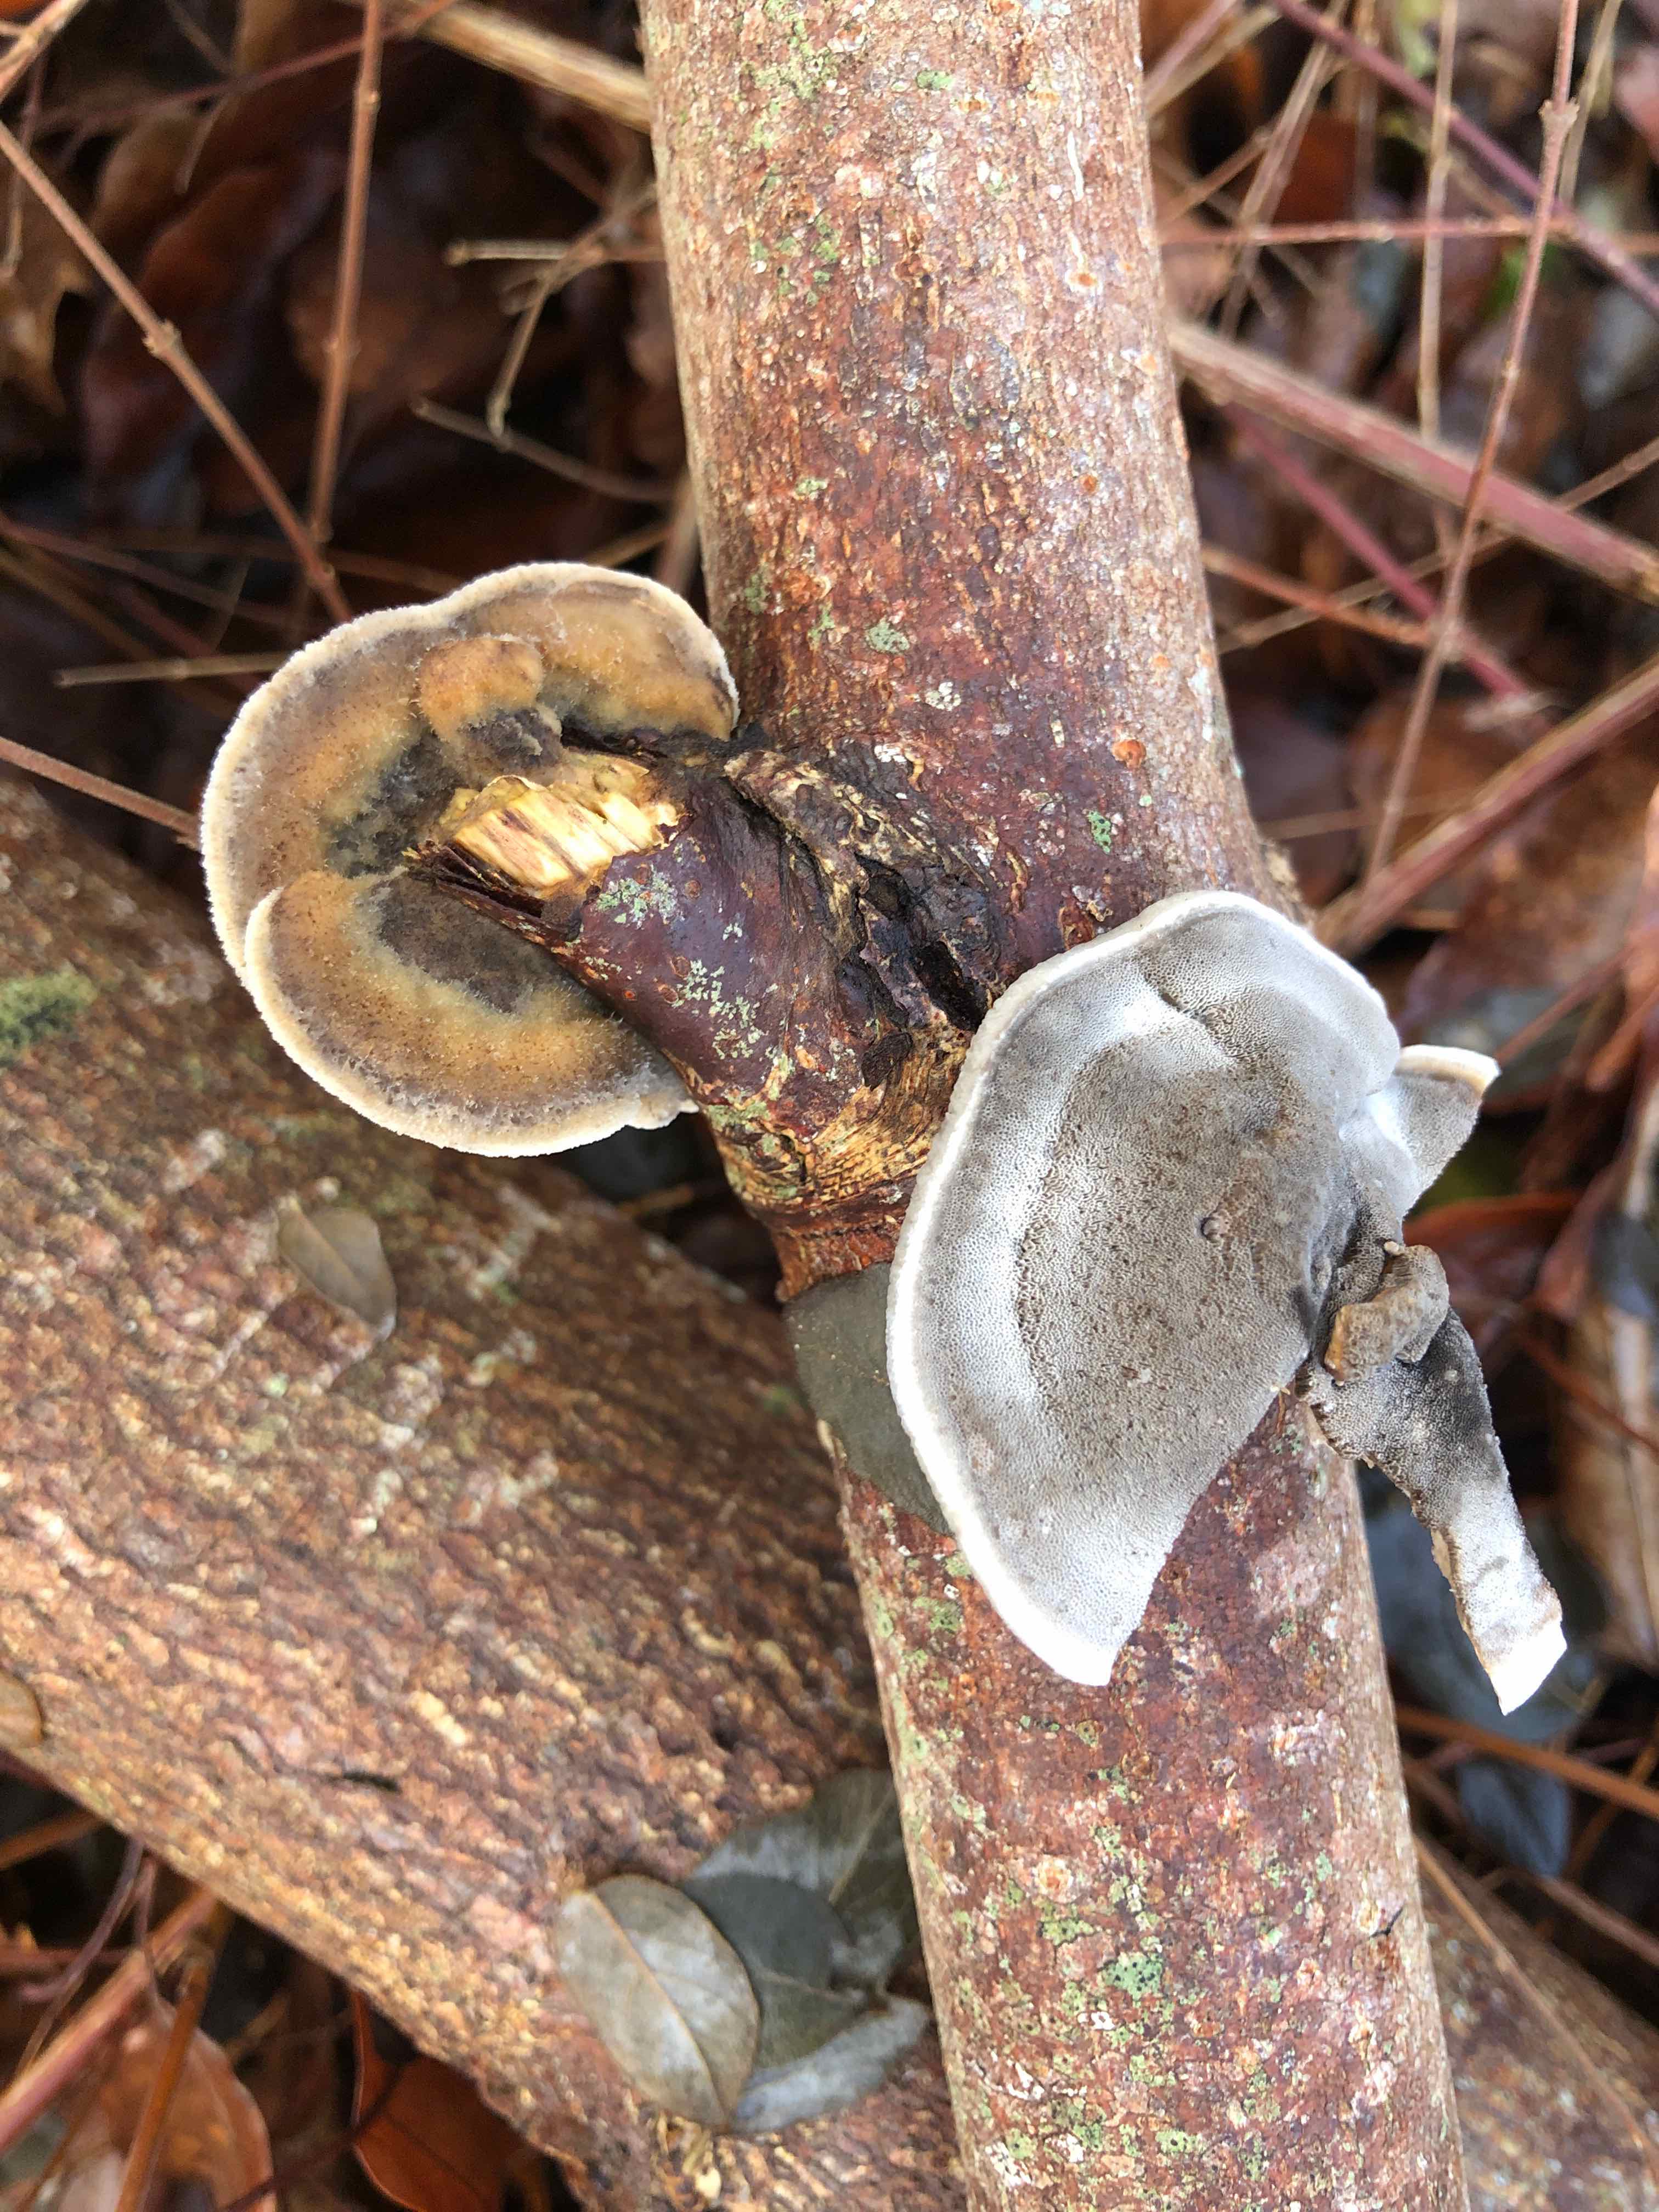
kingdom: Fungi
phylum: Basidiomycota
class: Agaricomycetes
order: Polyporales
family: Phanerochaetaceae
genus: Bjerkandera
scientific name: Bjerkandera adusta
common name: sveden sodporesvamp
